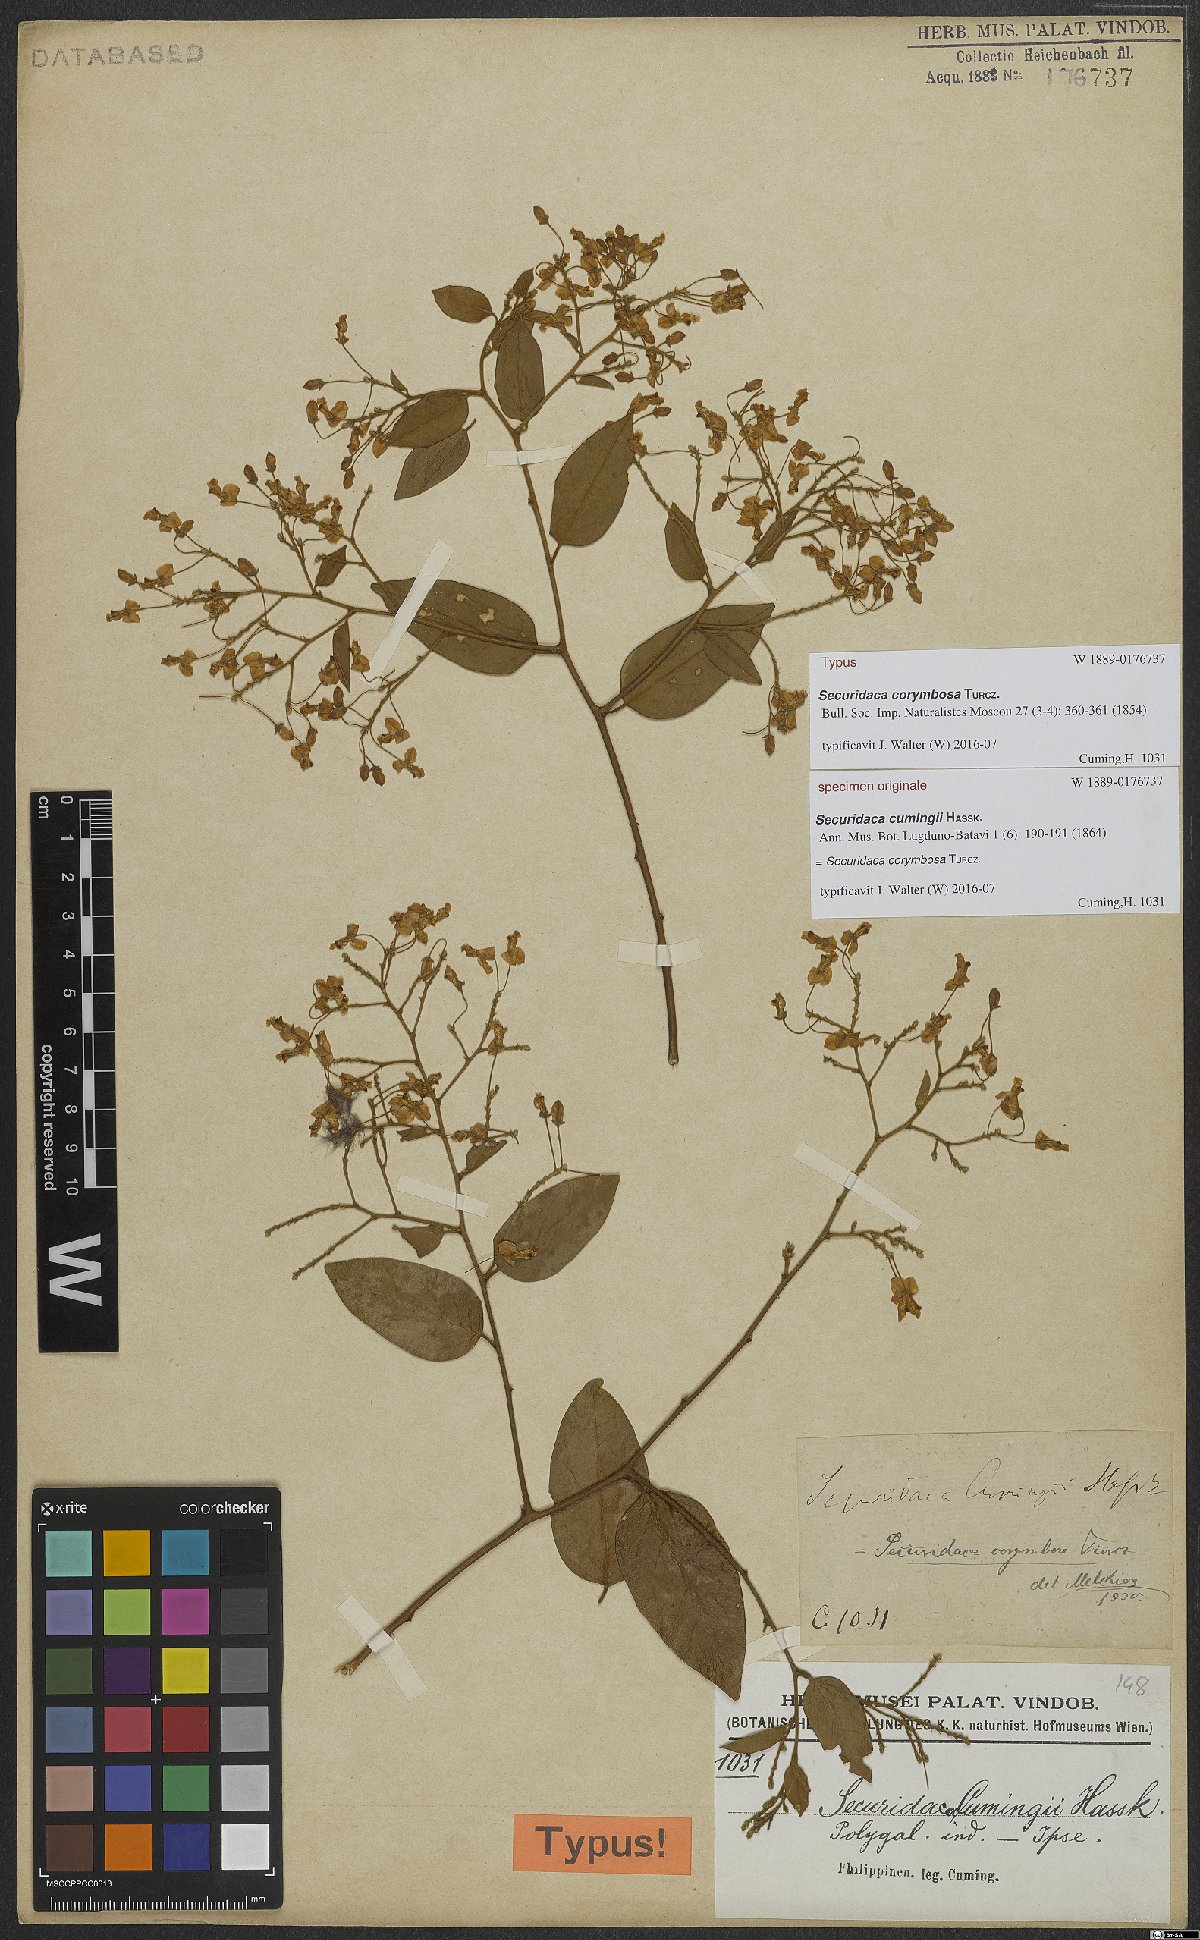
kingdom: Plantae
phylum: Tracheophyta
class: Magnoliopsida
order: Fabales
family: Polygalaceae
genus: Securidaca
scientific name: Securidaca inappendiculata
